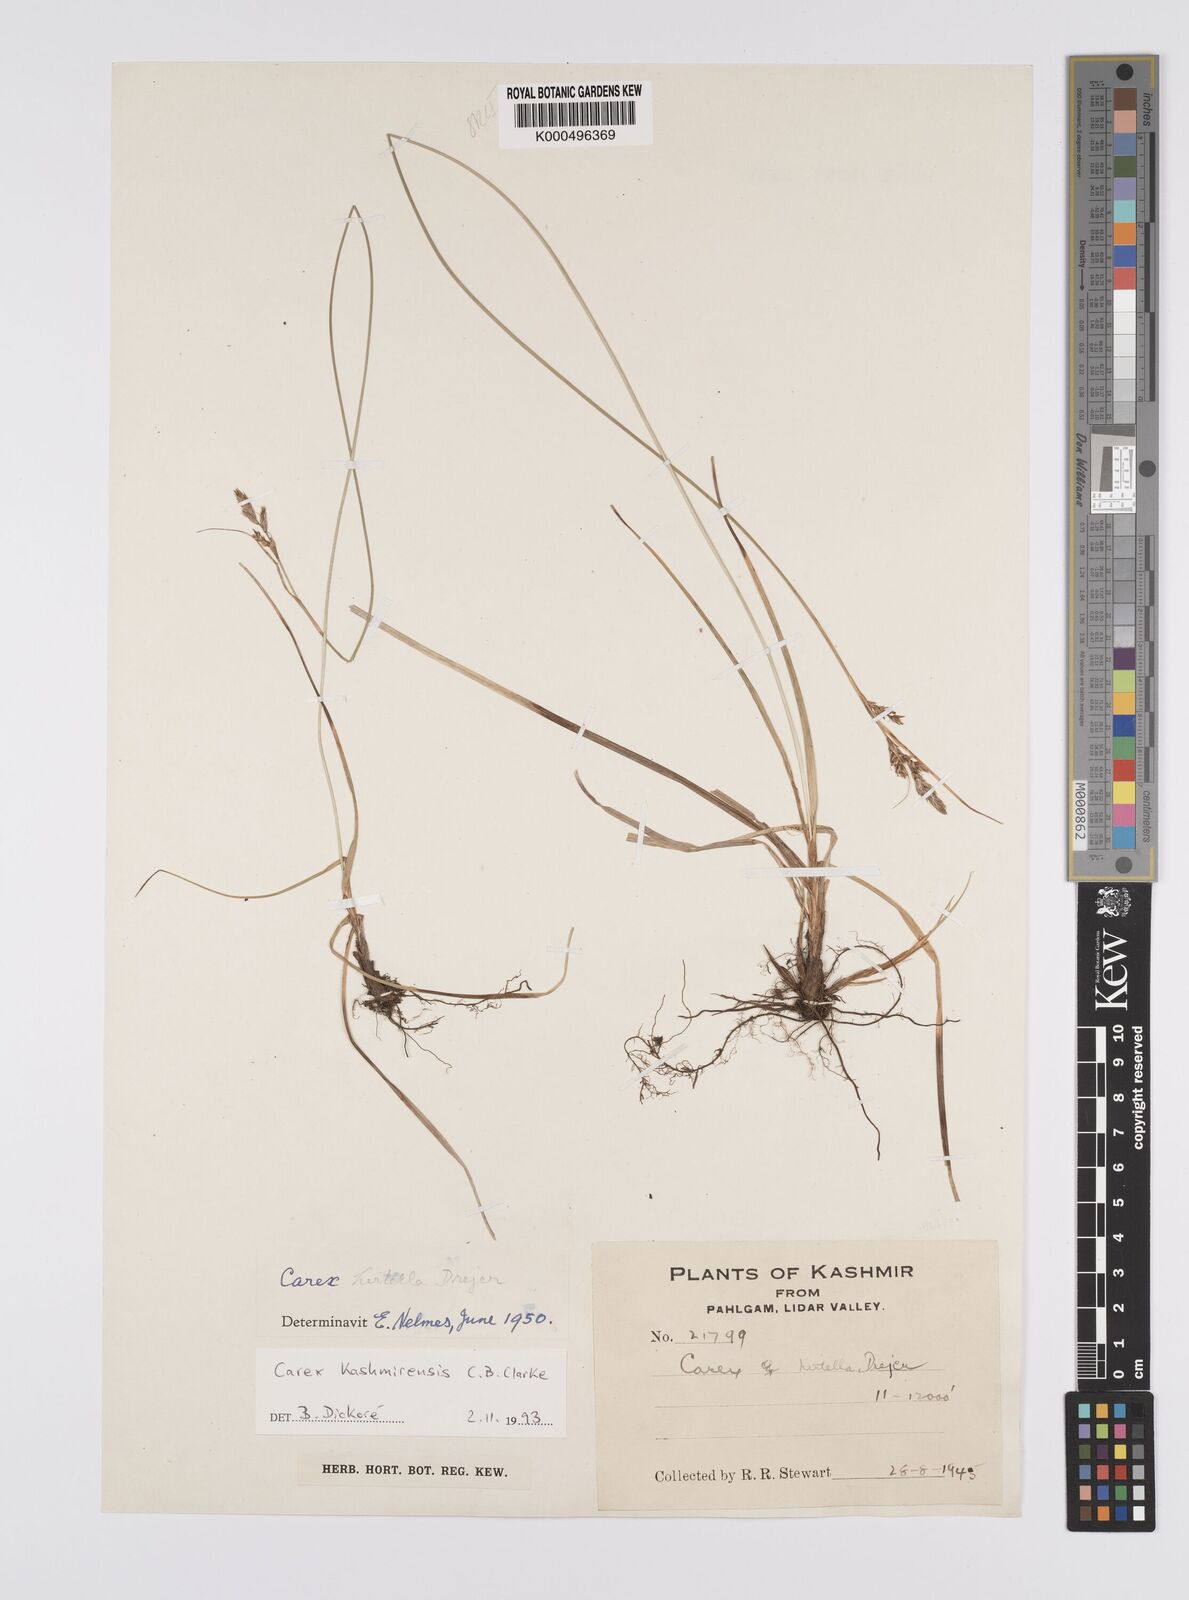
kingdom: Plantae
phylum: Tracheophyta
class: Liliopsida
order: Poales
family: Cyperaceae
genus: Carex
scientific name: Carex kashmirensis
